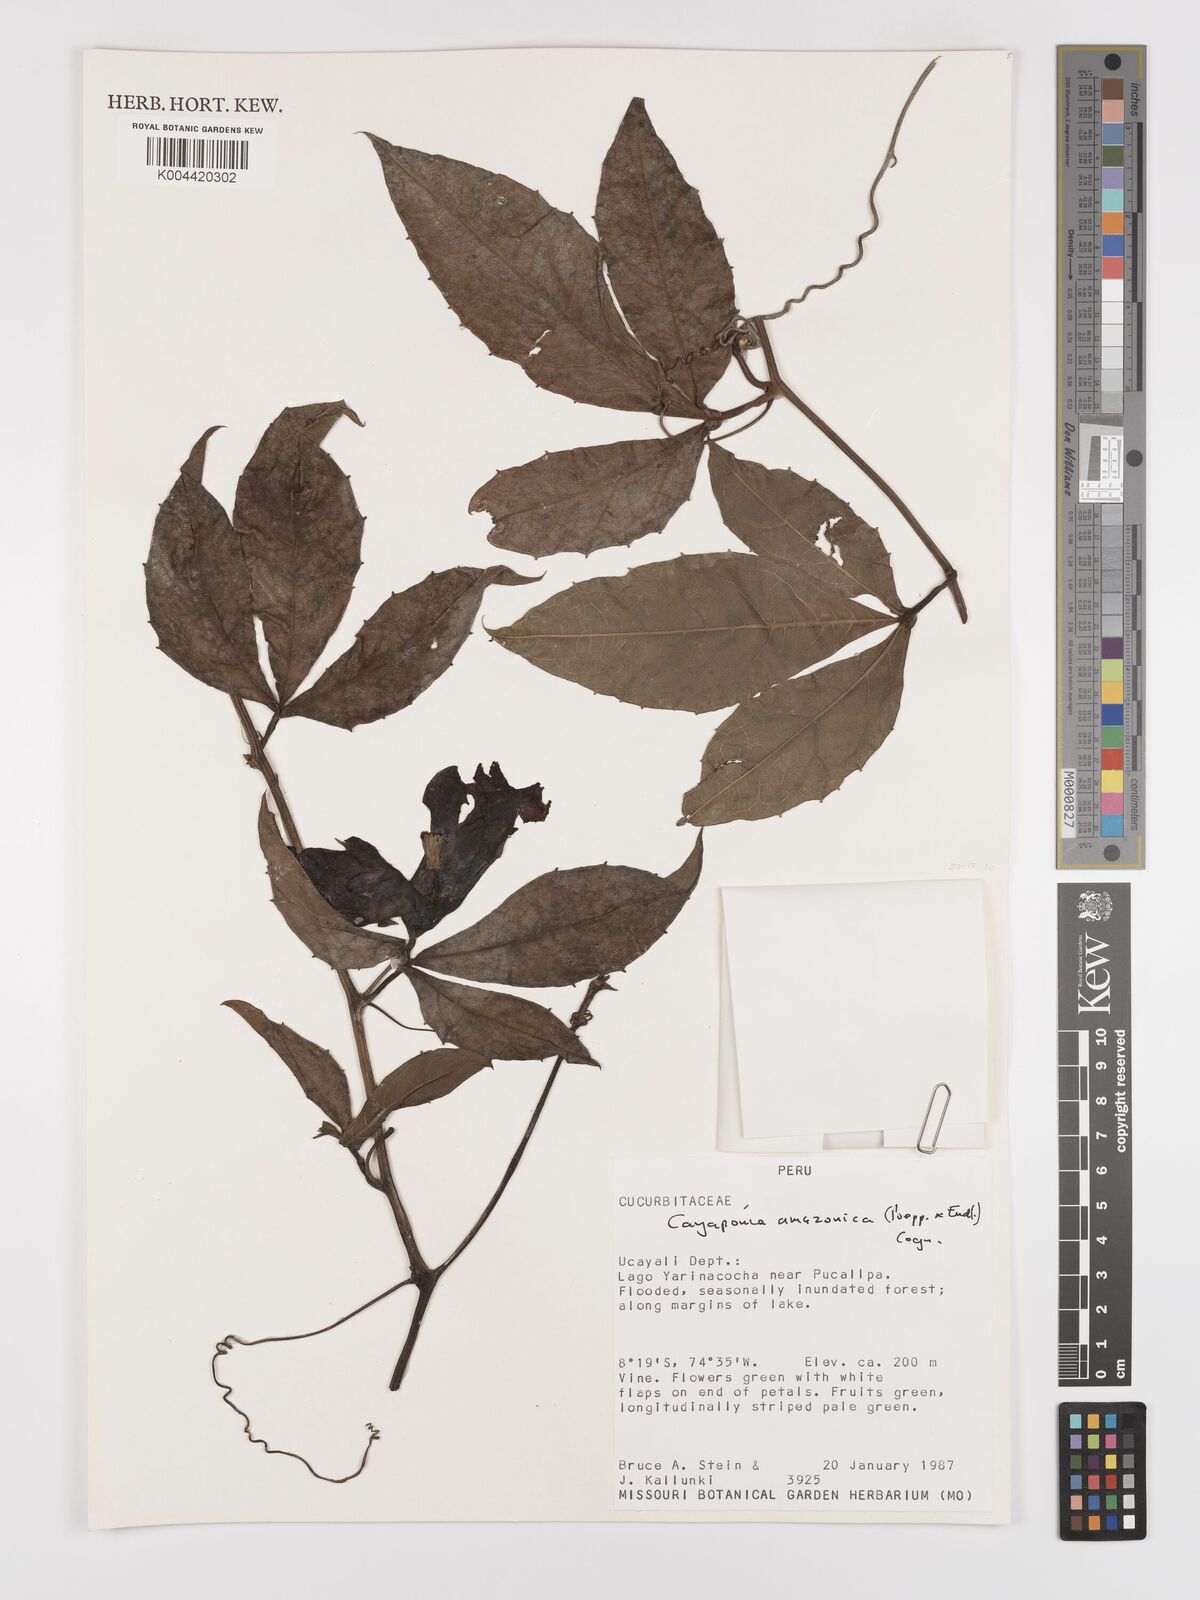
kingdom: Plantae
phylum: Tracheophyta
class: Magnoliopsida
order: Cucurbitales
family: Cucurbitaceae
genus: Cayaponia
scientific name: Cayaponia amazonica
